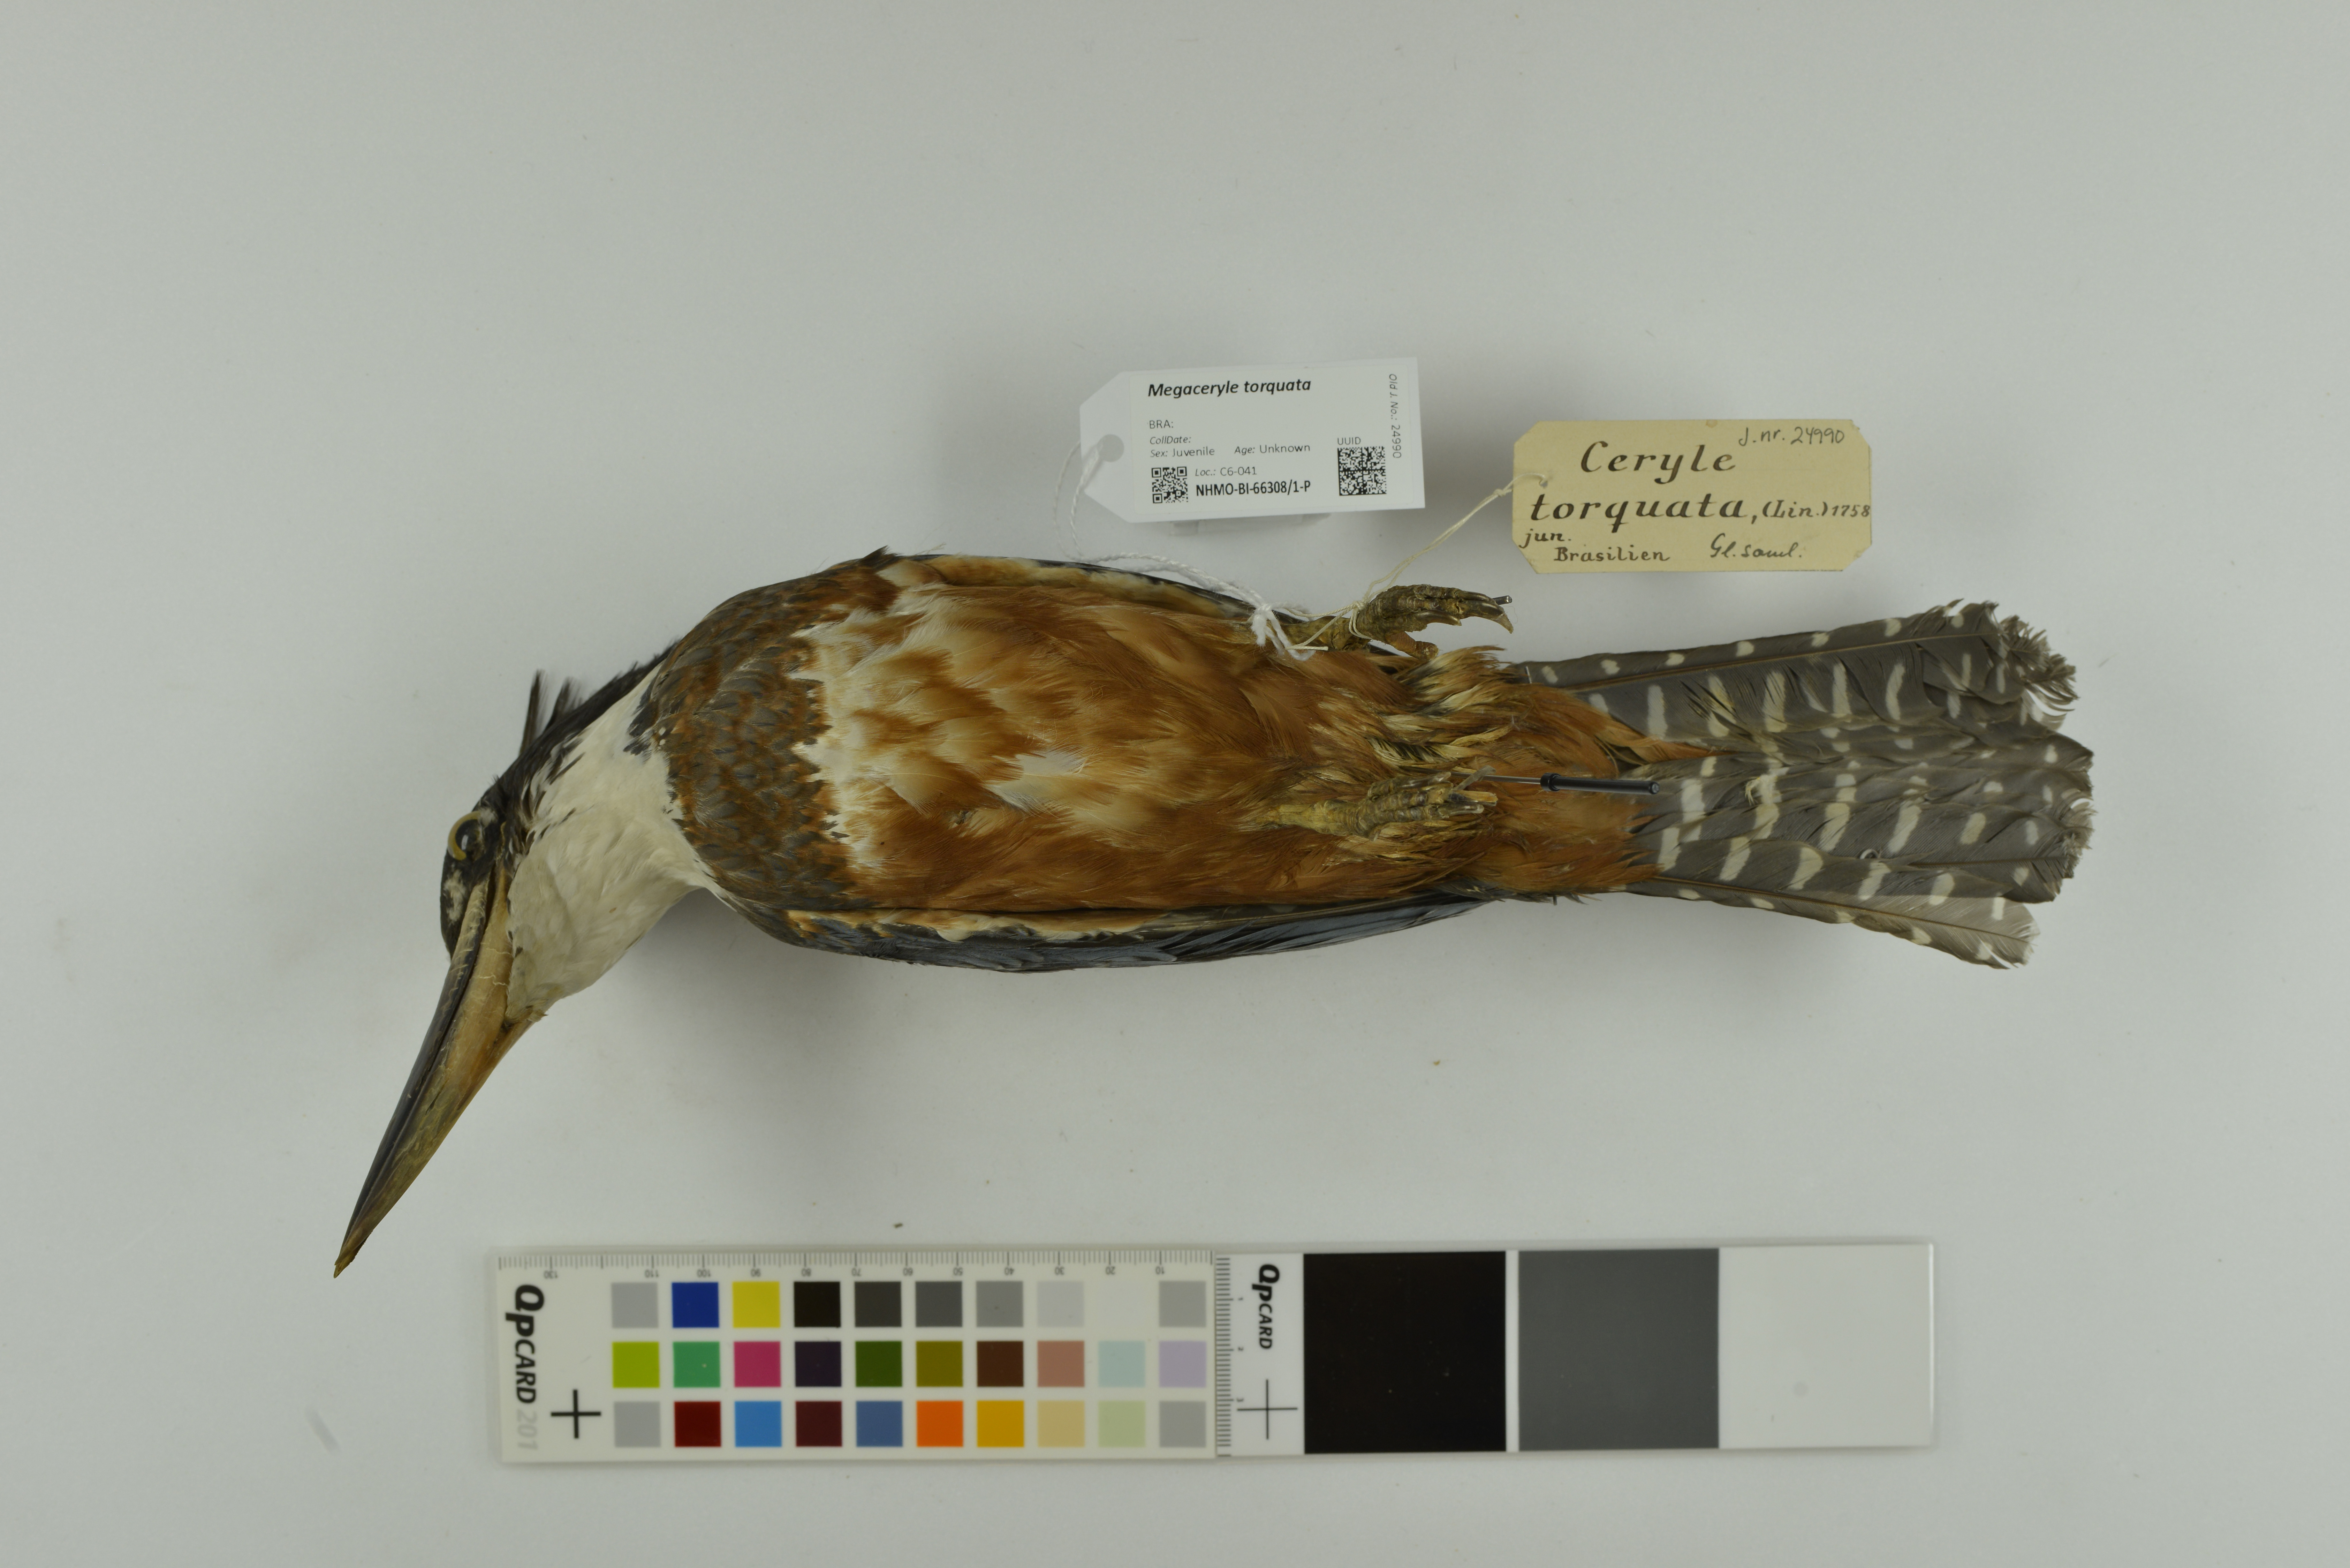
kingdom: Animalia
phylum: Chordata
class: Aves
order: Coraciiformes
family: Alcedinidae
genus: Megaceryle
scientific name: Megaceryle torquata
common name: Ringed kingfisher
